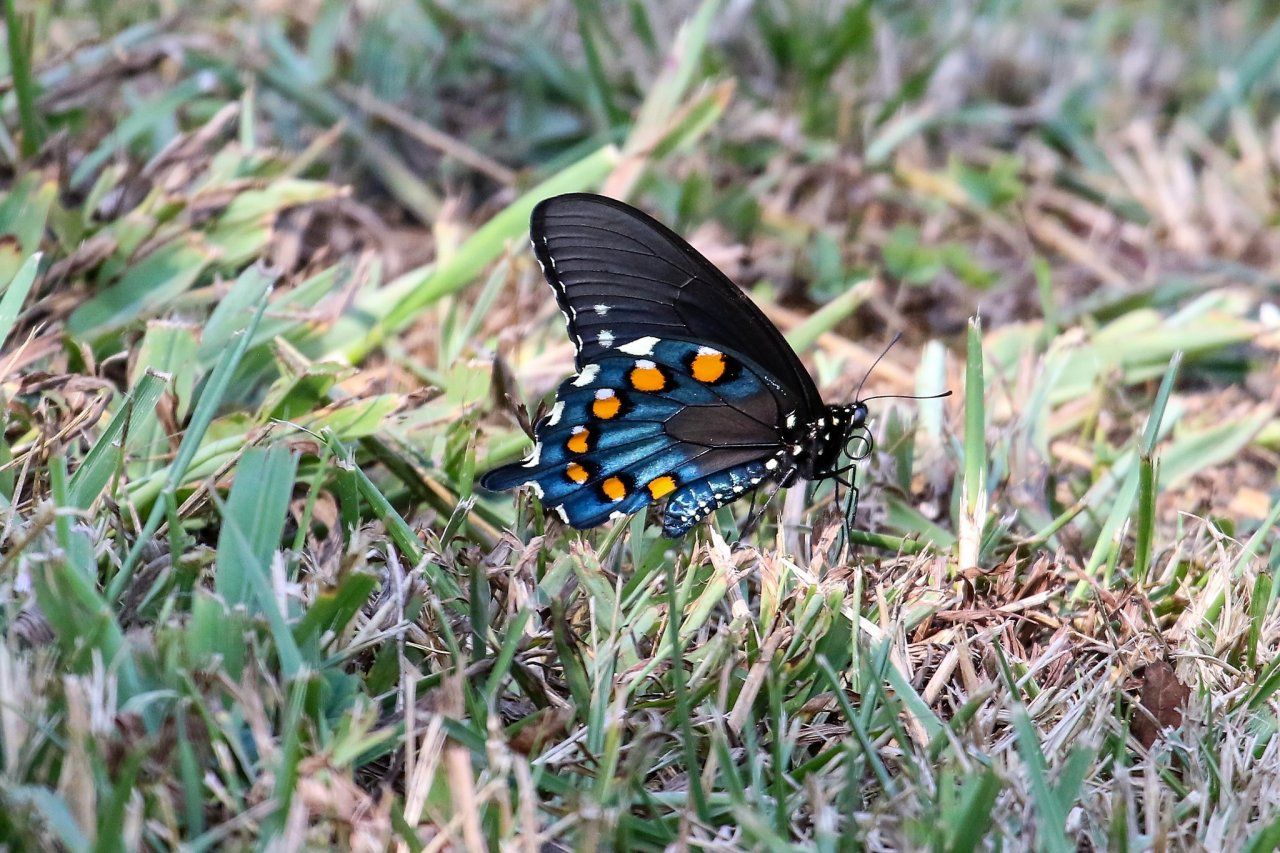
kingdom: Animalia
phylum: Arthropoda
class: Insecta
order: Lepidoptera
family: Papilionidae
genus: Battus
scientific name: Battus philenor
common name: Pipevine Swallowtail
